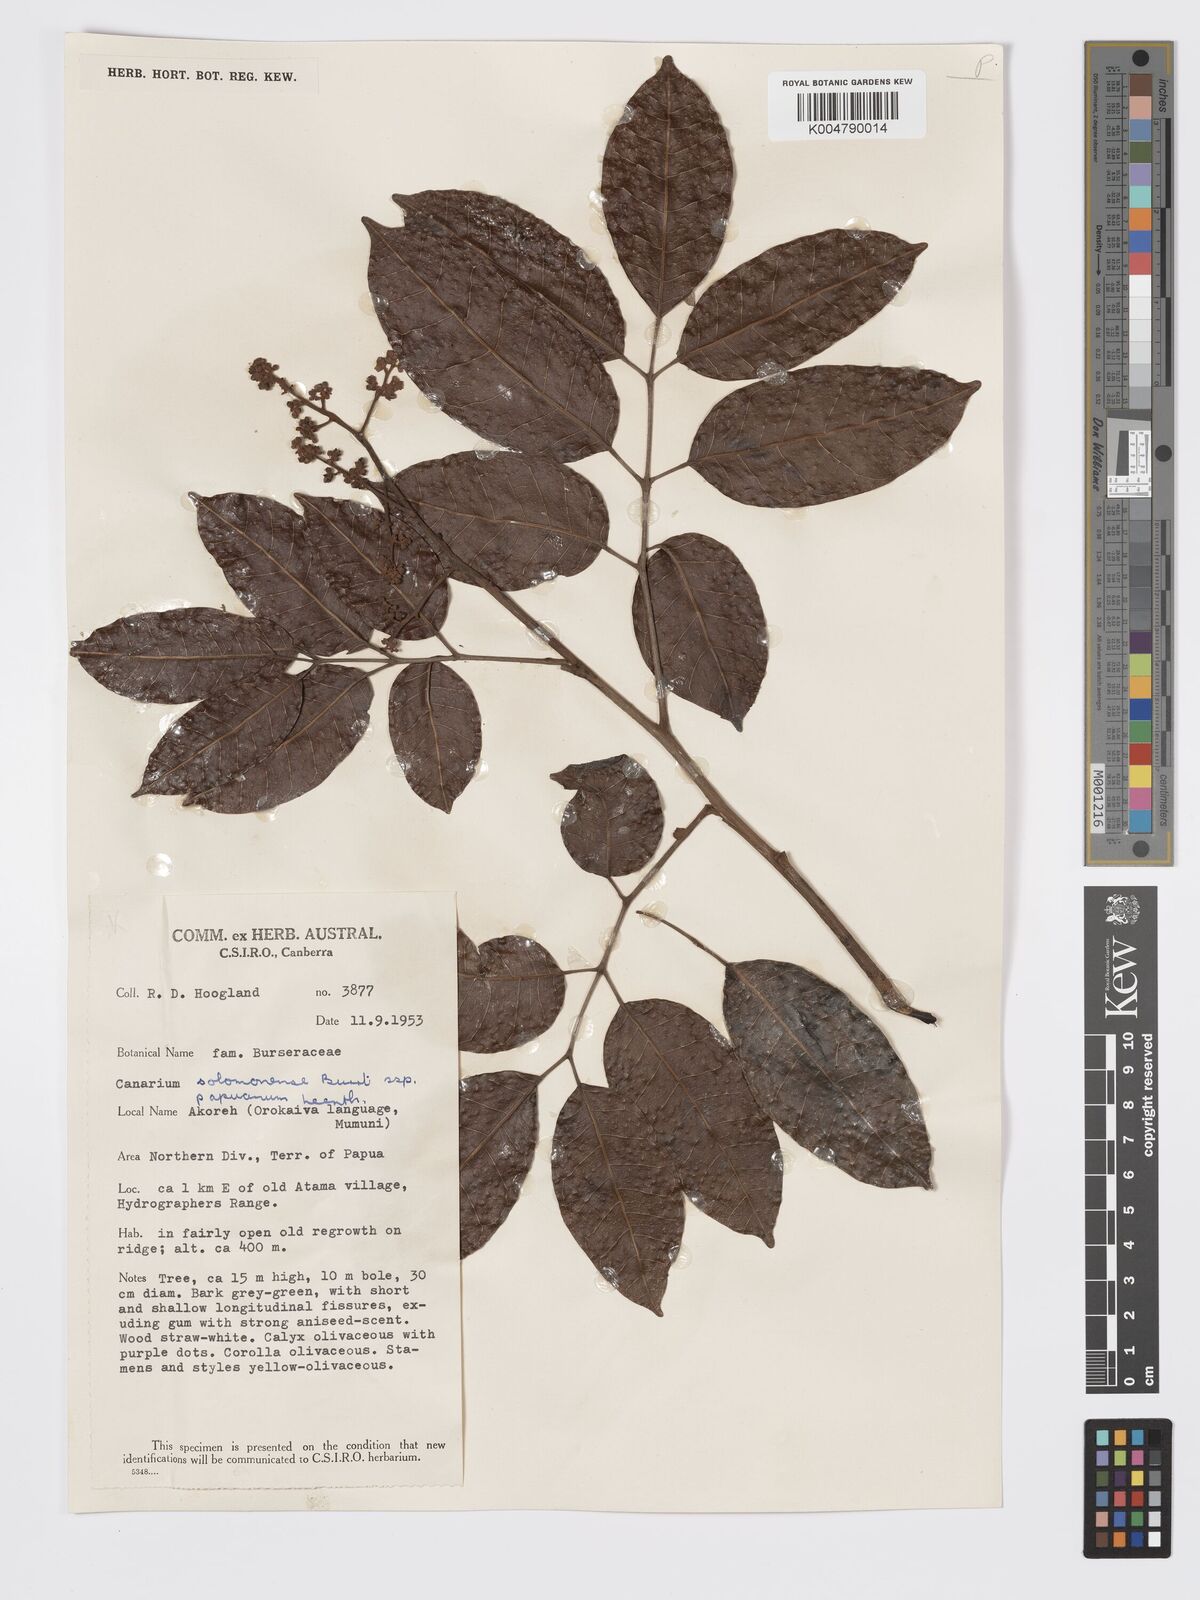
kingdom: Plantae
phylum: Tracheophyta
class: Magnoliopsida
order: Sapindales
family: Burseraceae
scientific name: Burseraceae
